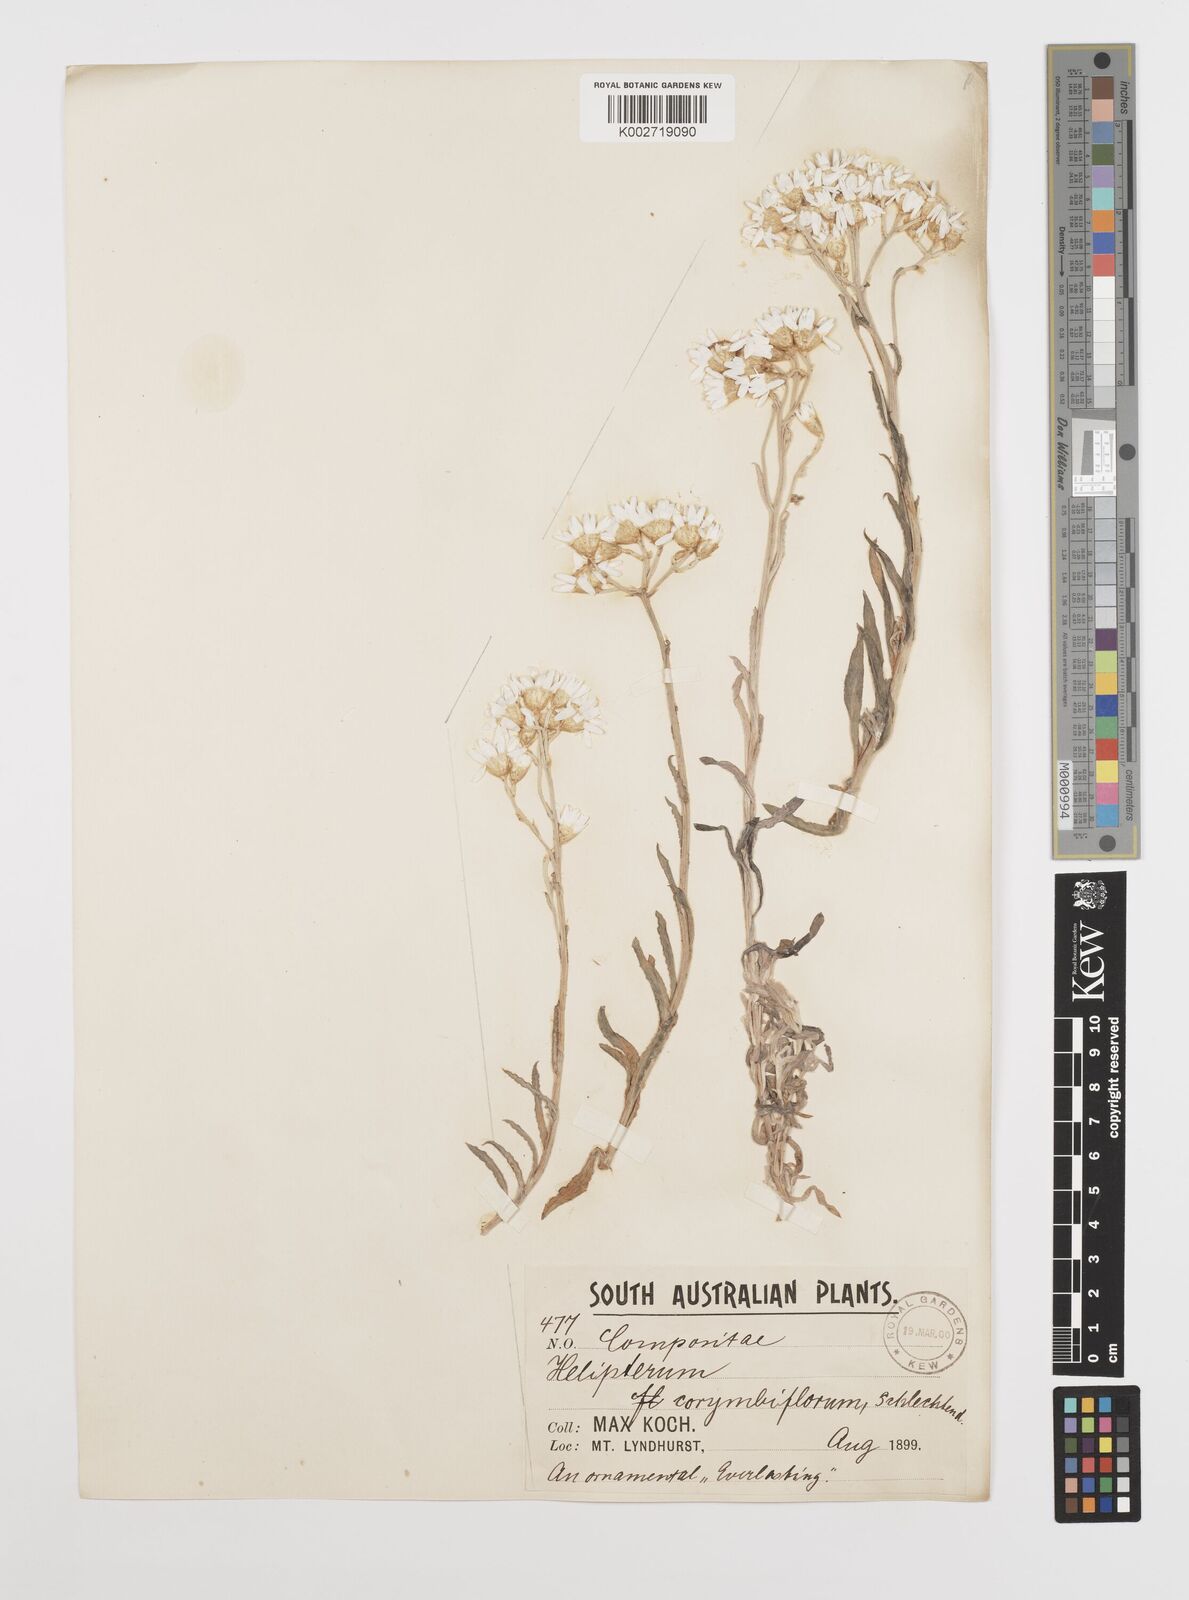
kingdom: Plantae
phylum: Tracheophyta
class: Magnoliopsida
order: Asterales
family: Asteraceae
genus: Rhodanthe
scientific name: Rhodanthe corymbiflora
